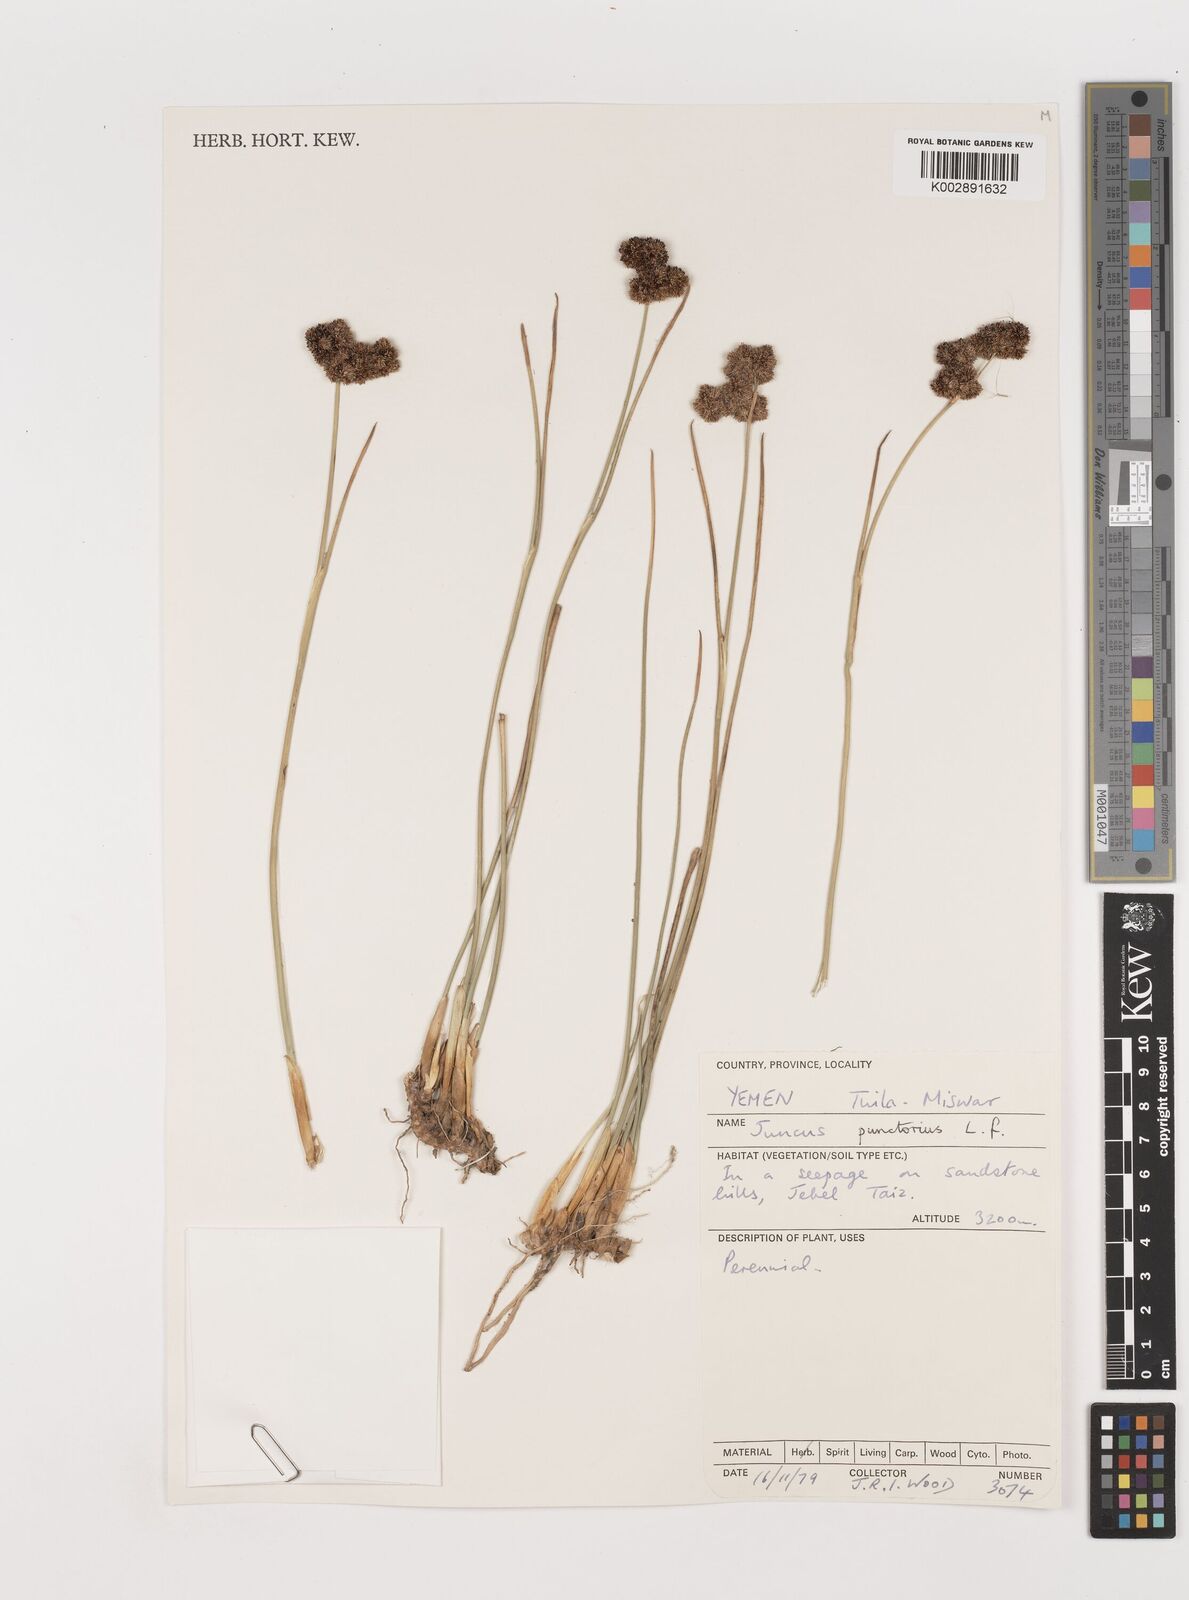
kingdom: Plantae
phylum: Tracheophyta
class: Liliopsida
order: Poales
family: Juncaceae
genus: Juncus
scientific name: Juncus punctorius
